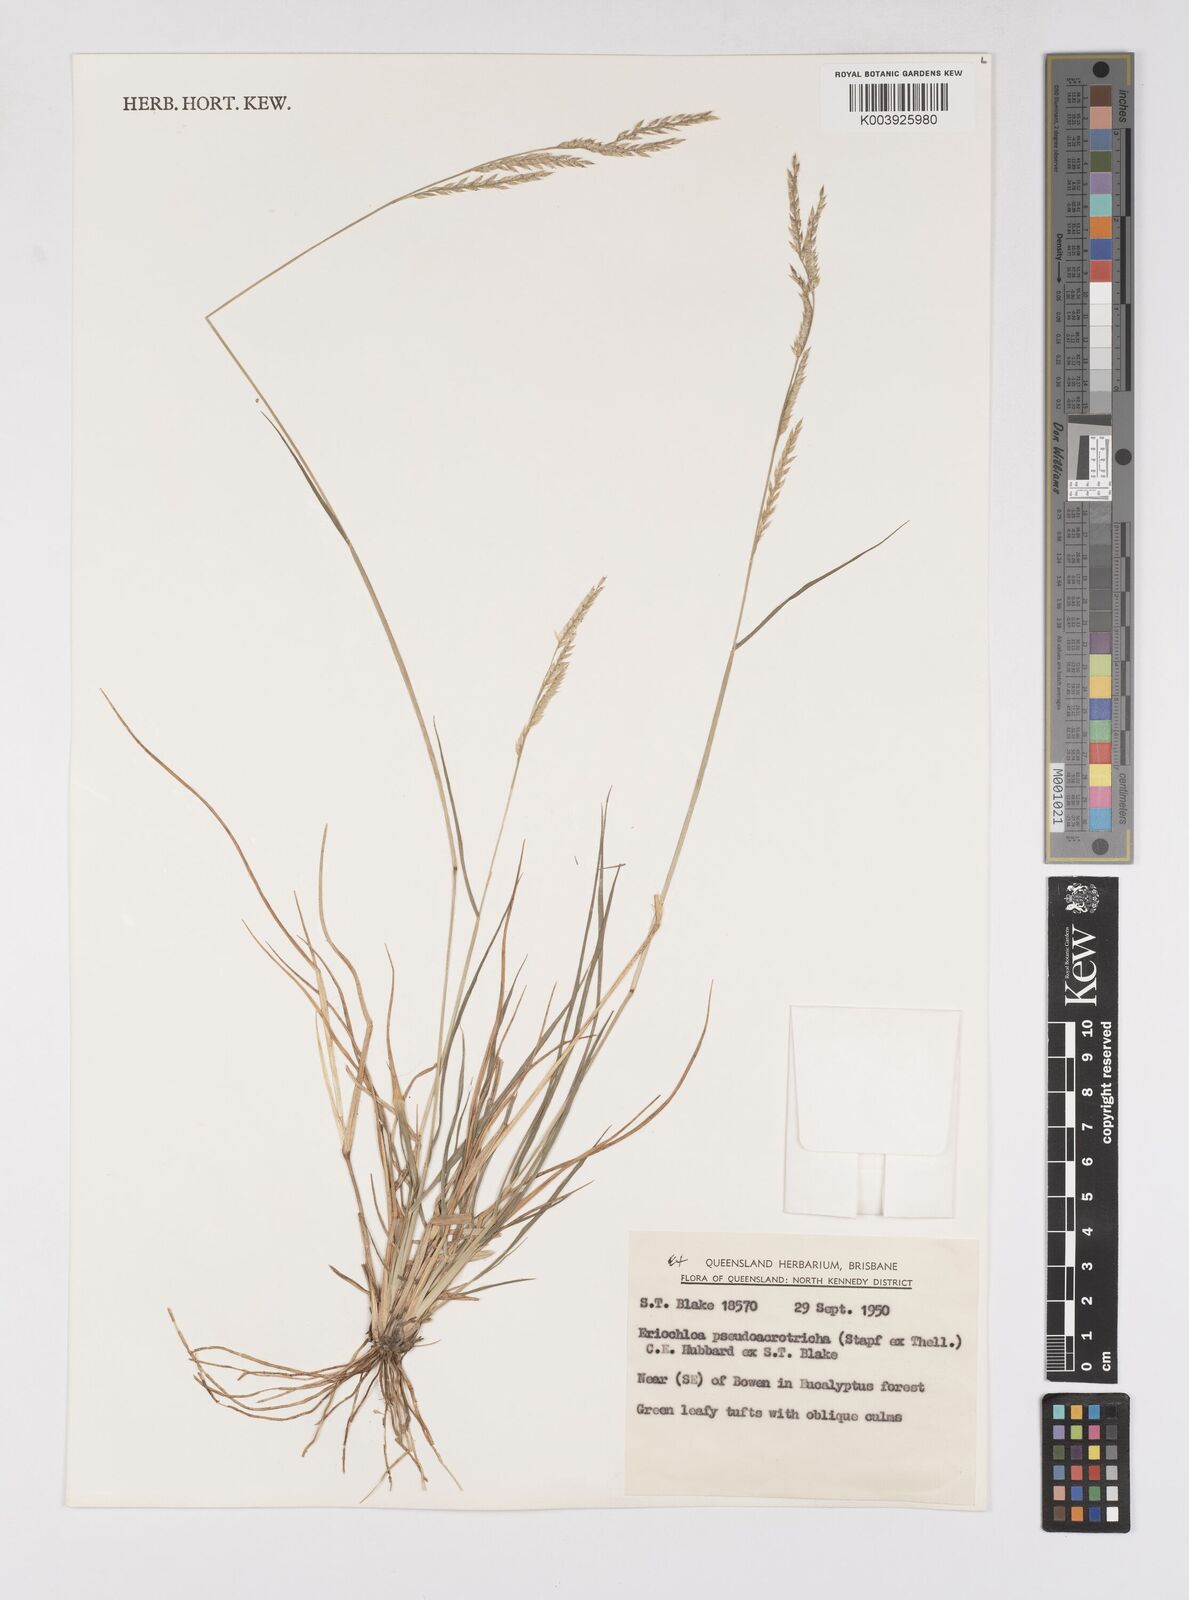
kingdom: Plantae
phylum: Tracheophyta
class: Liliopsida
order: Poales
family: Poaceae
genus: Eriochloa
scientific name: Eriochloa pseudoacrotricha
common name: Perennial cup-grass
